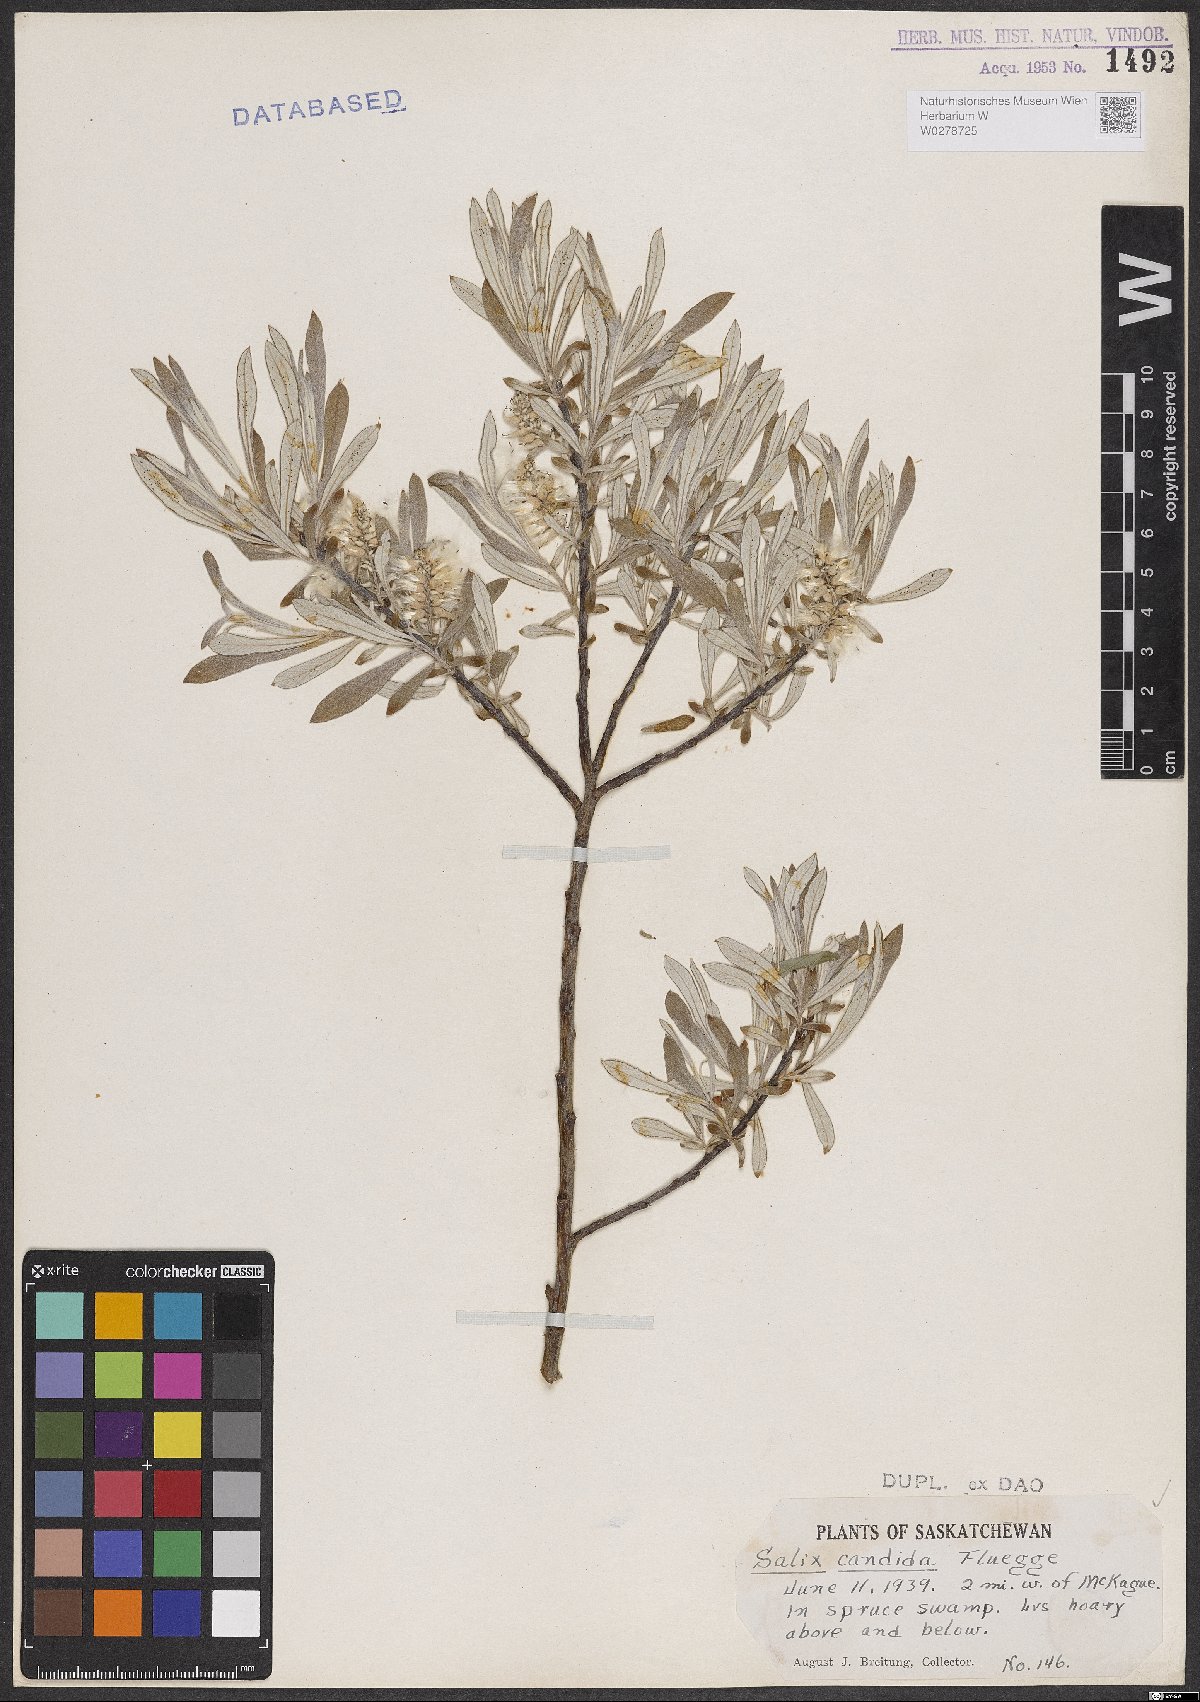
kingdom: Plantae
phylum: Tracheophyta
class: Magnoliopsida
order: Malpighiales
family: Salicaceae
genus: Salix
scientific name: Salix candida
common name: Hoary willow
